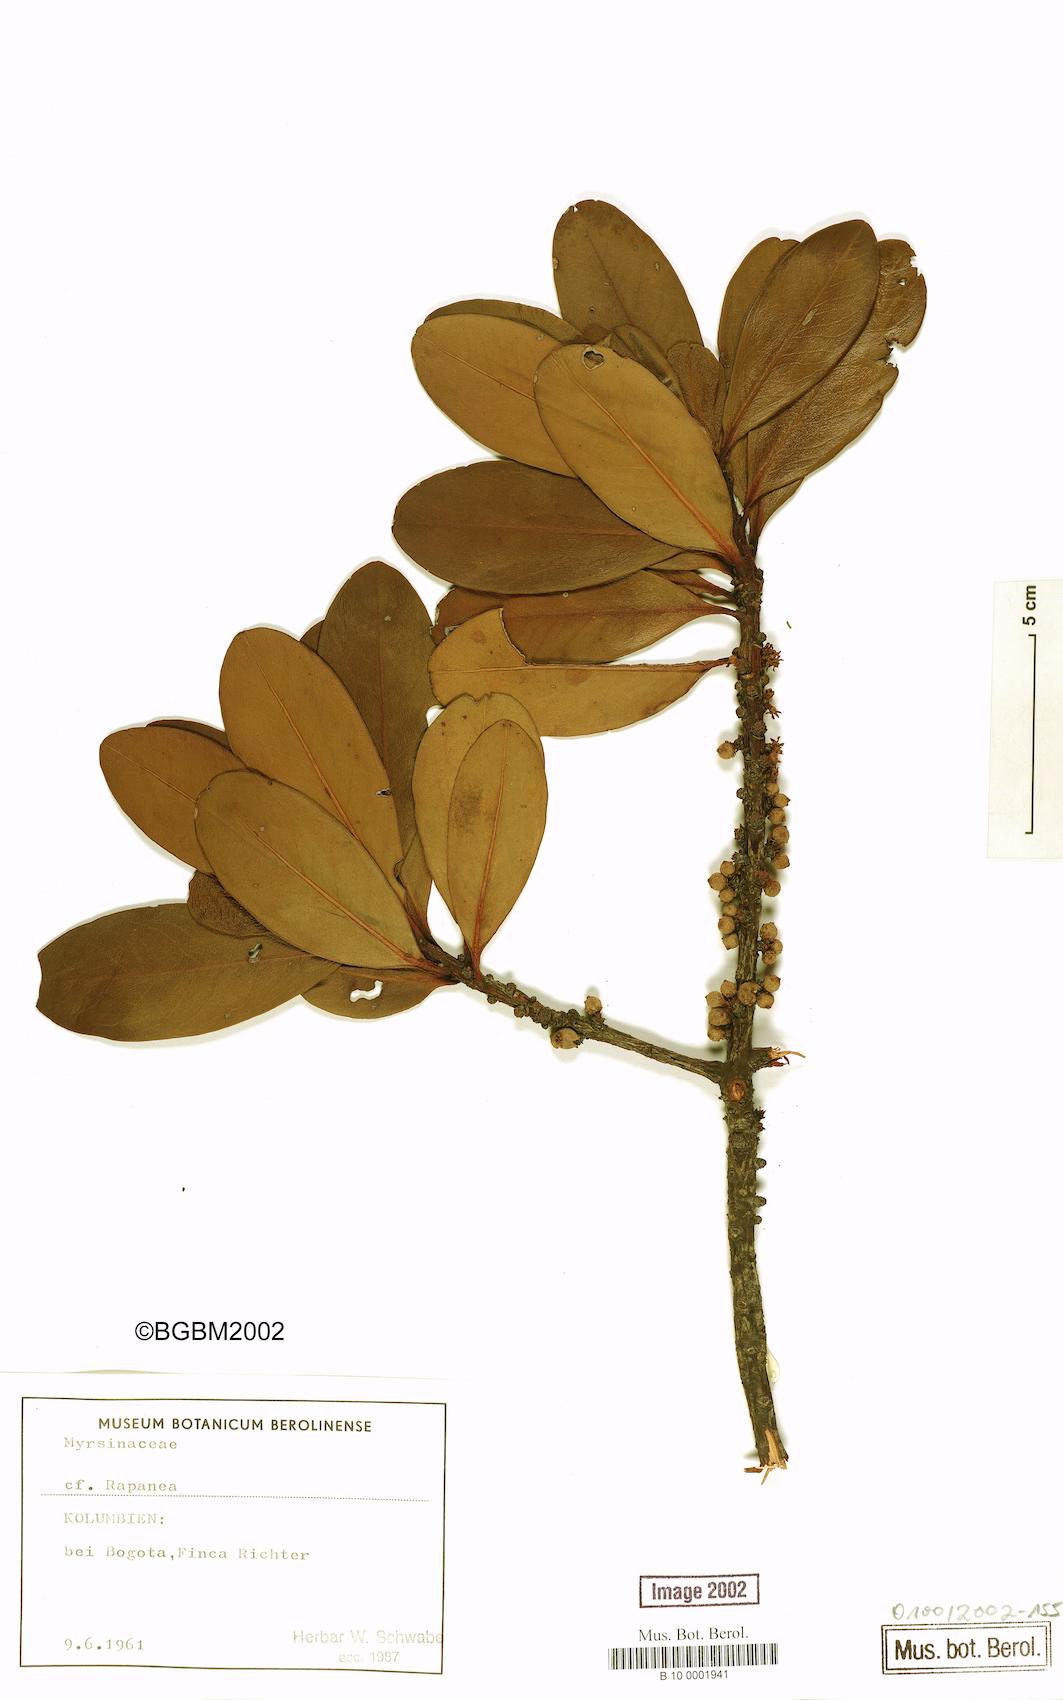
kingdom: Plantae
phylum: Tracheophyta
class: Magnoliopsida
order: Ericales
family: Primulaceae
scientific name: Primulaceae
